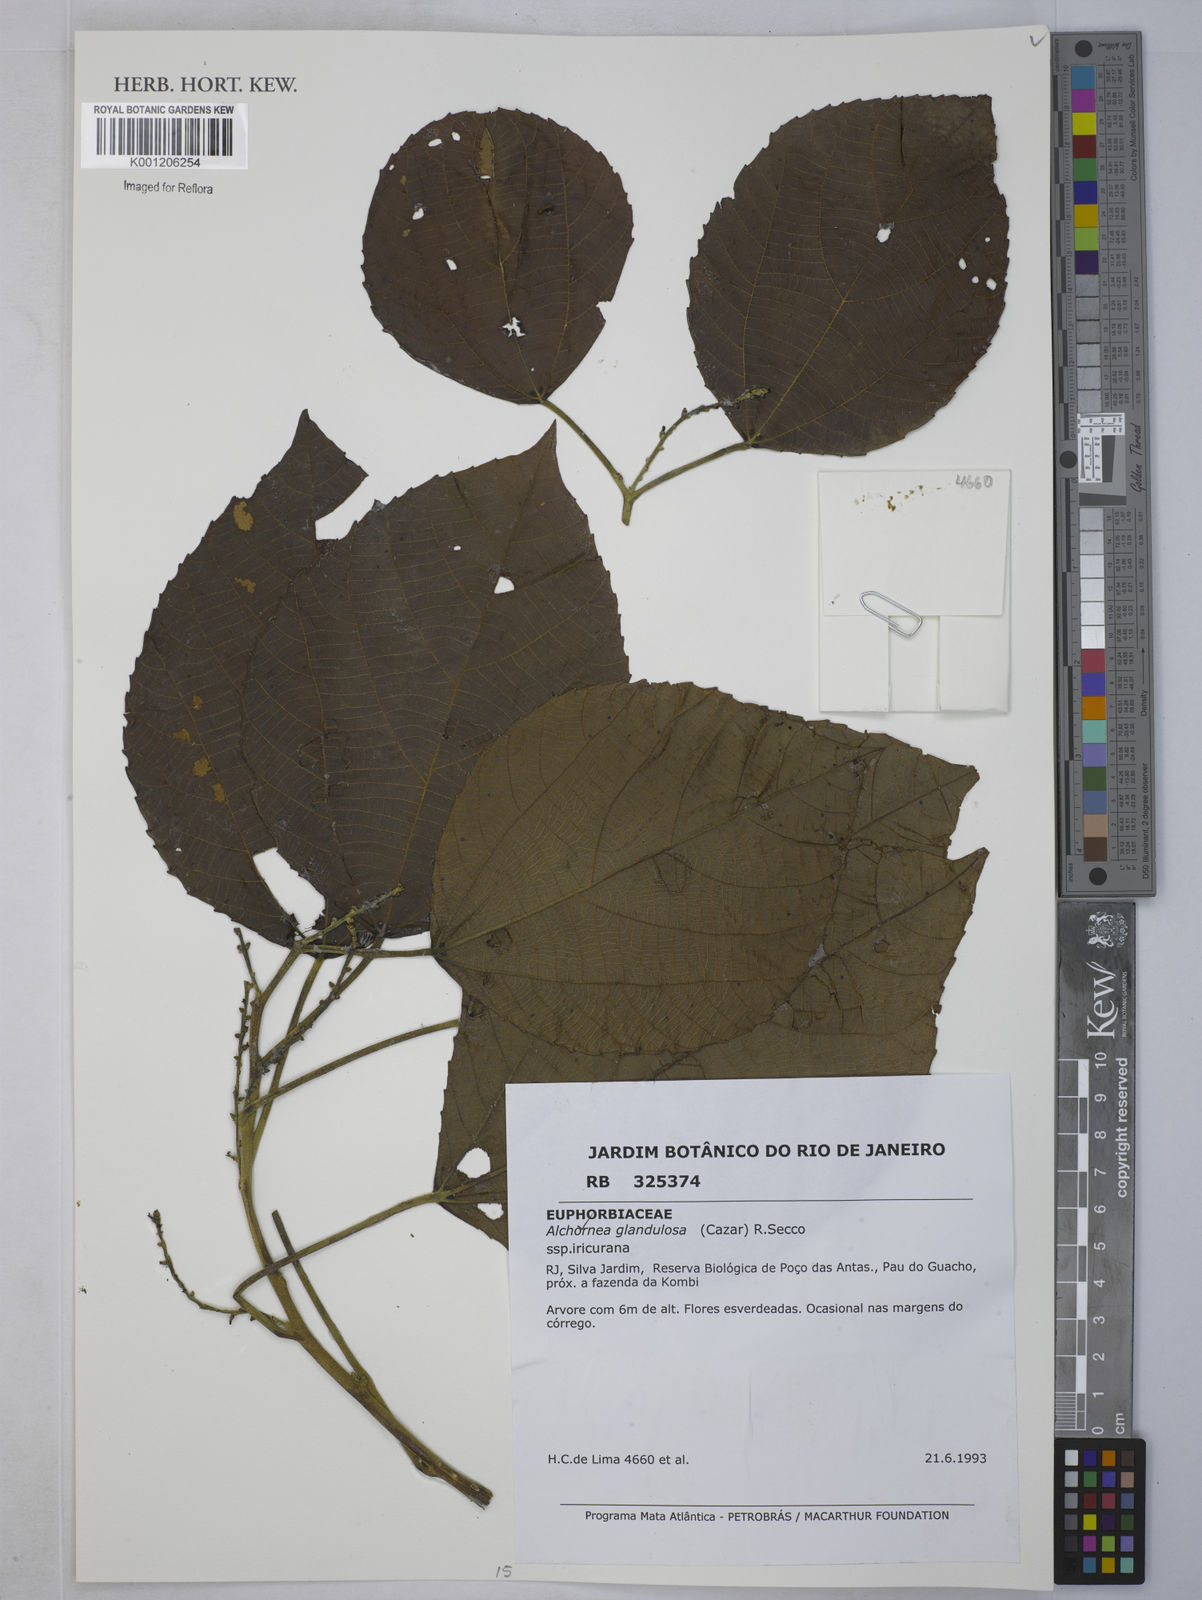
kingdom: Plantae
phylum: Tracheophyta
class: Magnoliopsida
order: Malpighiales
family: Euphorbiaceae
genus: Alchornea
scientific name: Alchornea glandulosa
